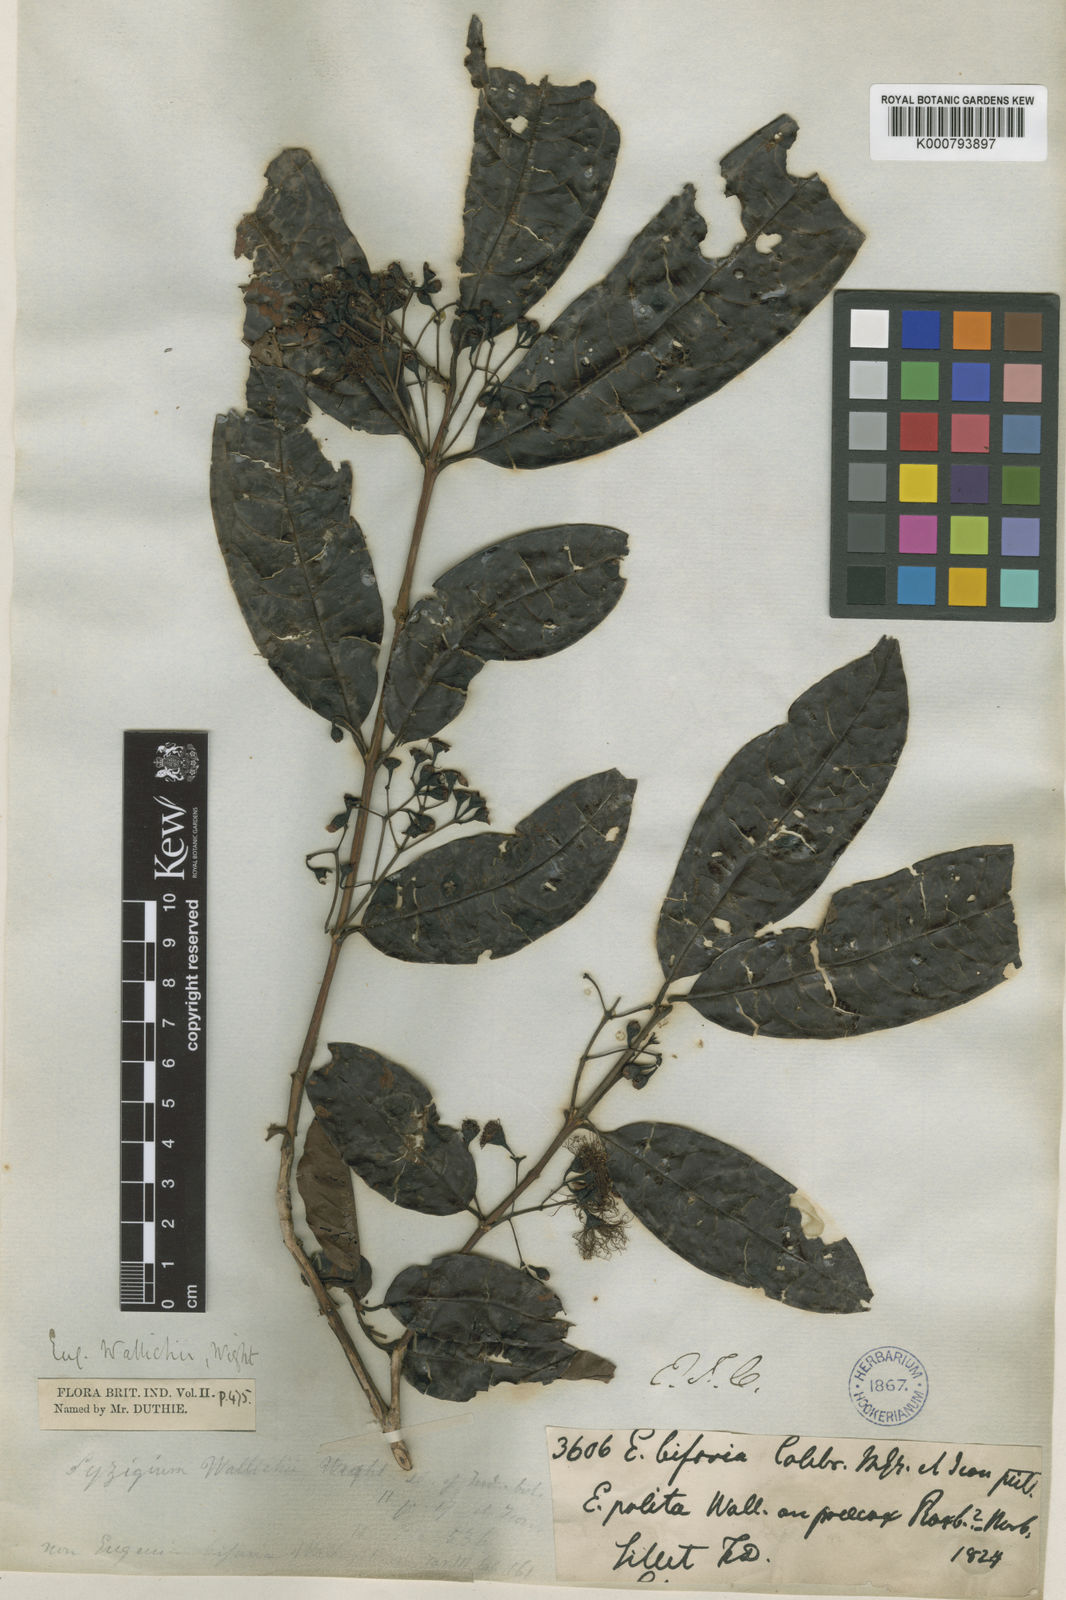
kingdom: Plantae
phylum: Tracheophyta
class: Magnoliopsida
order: Myrtales
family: Myrtaceae
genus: Syzygium
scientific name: Syzygium praecox
